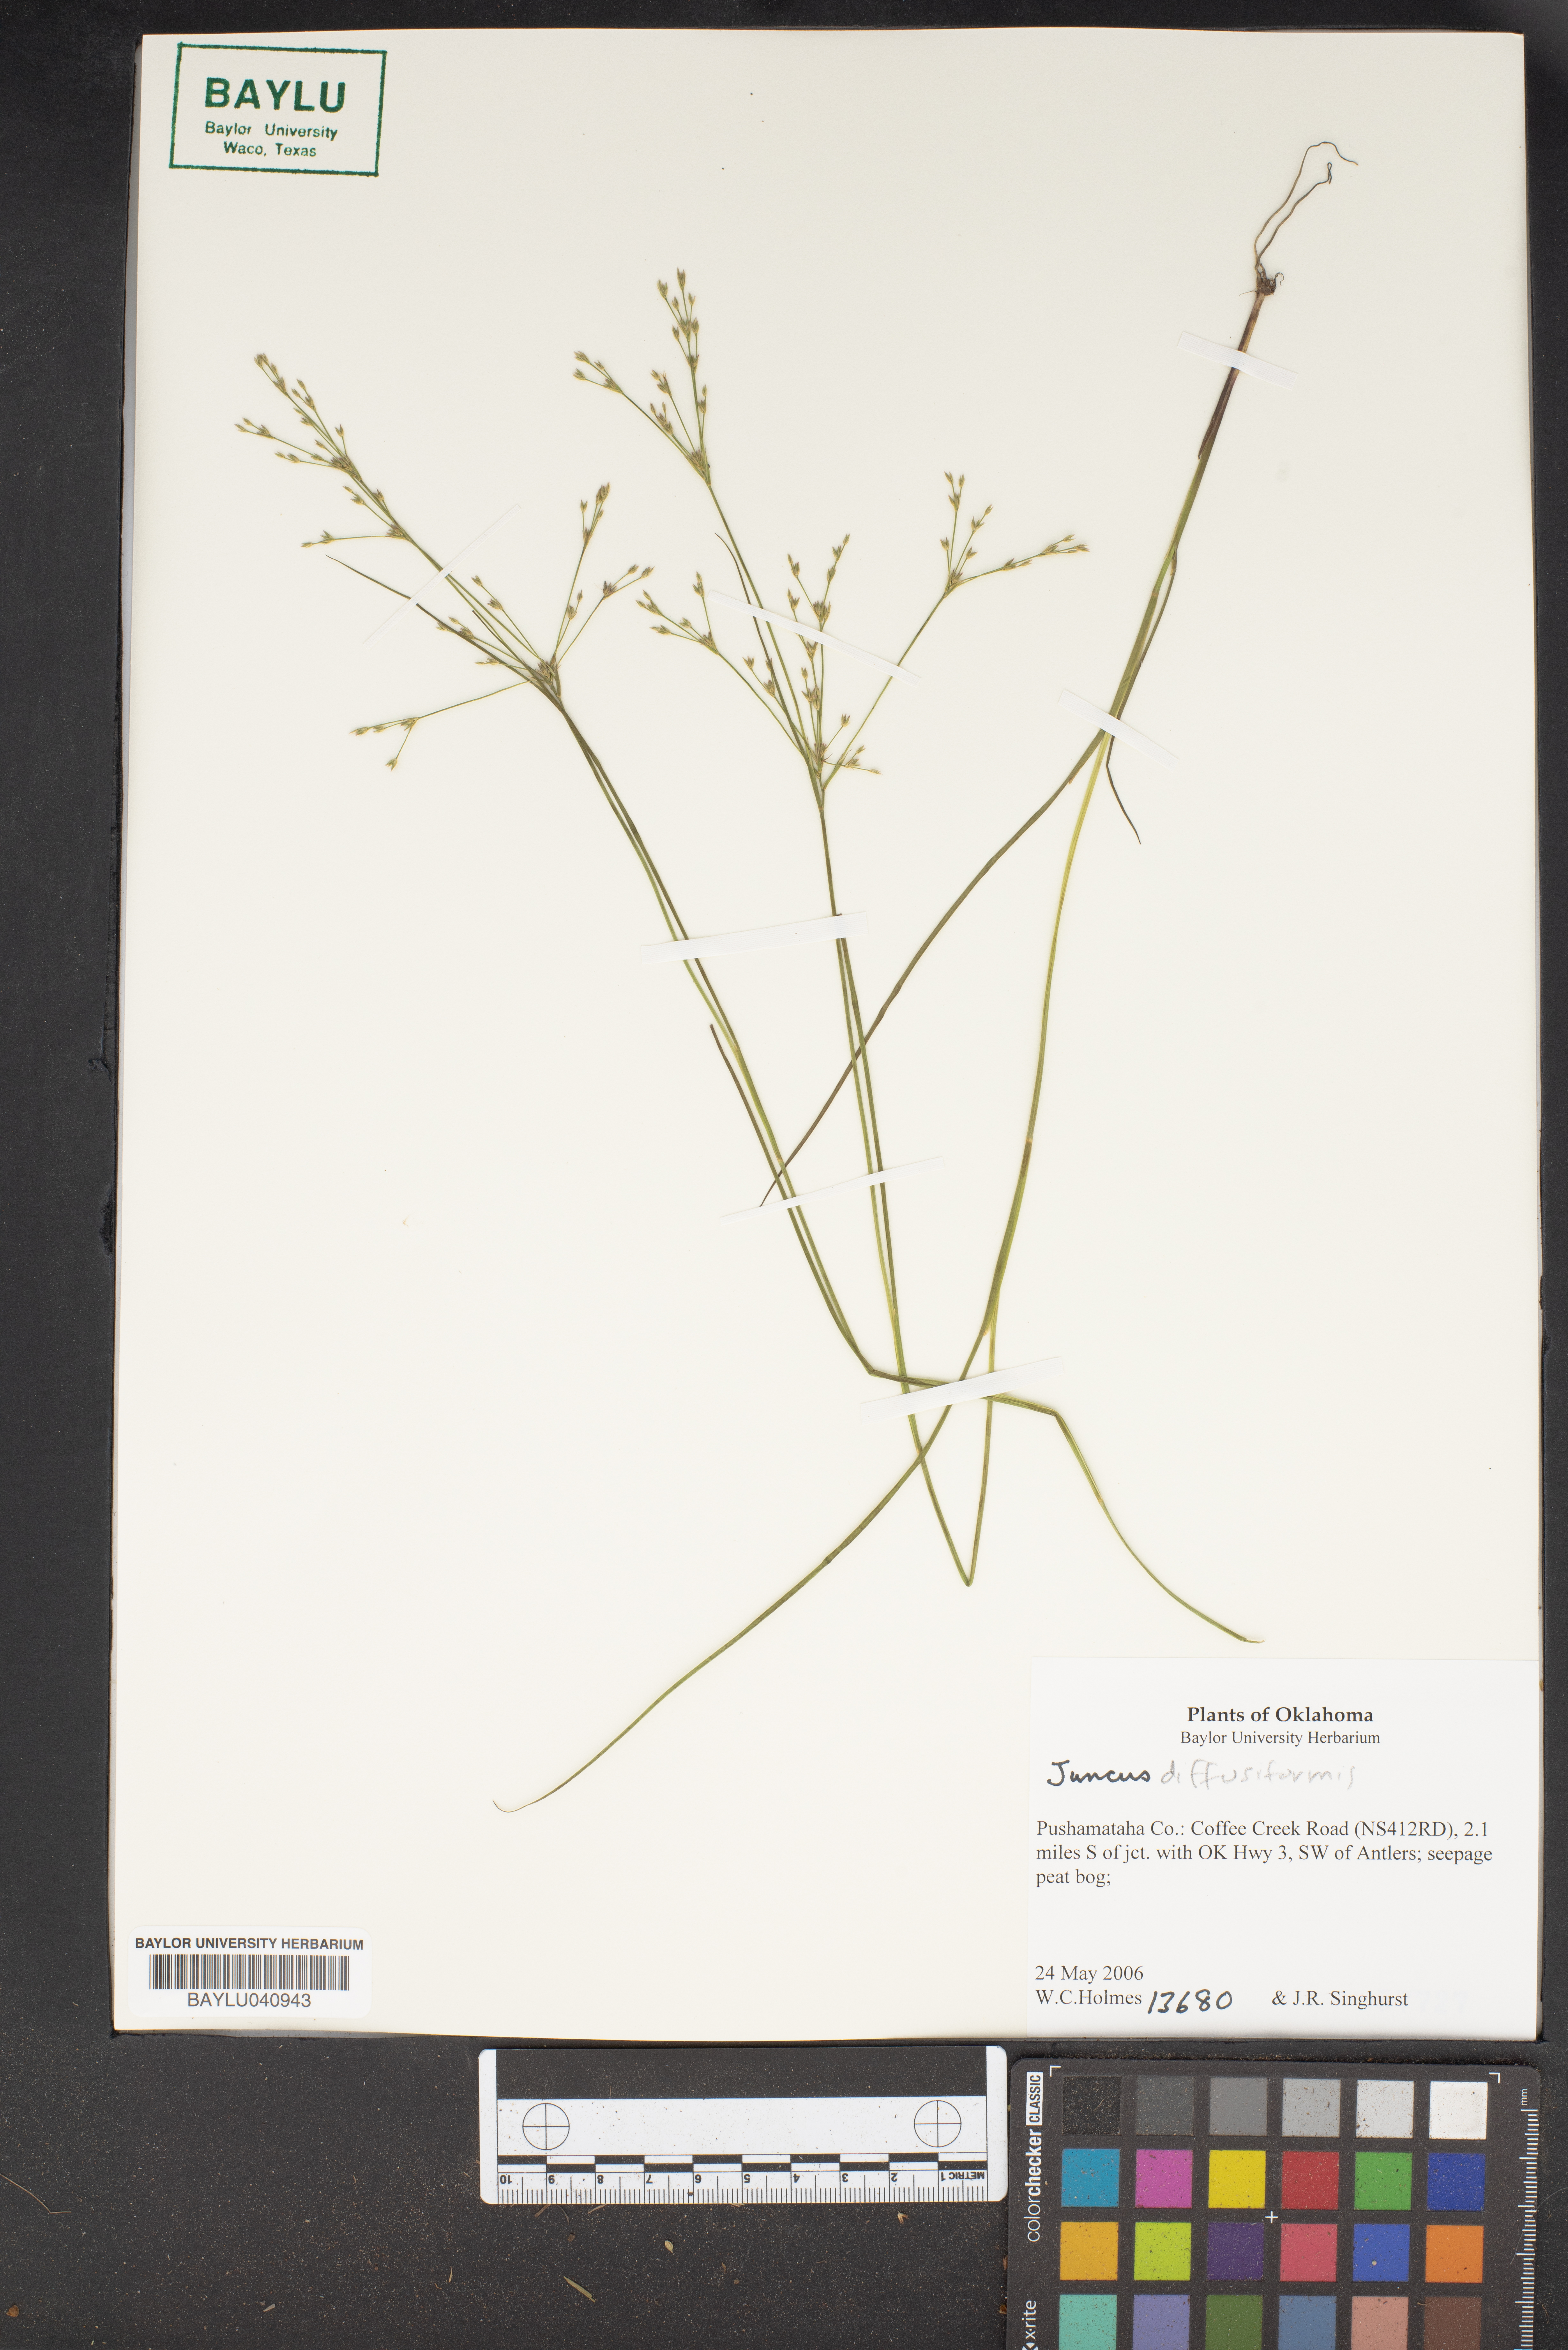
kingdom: Plantae
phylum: Tracheophyta
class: Liliopsida
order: Poales
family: Juncaceae
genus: Juncus
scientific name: Juncus diffusissimus
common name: Slimpod rush
